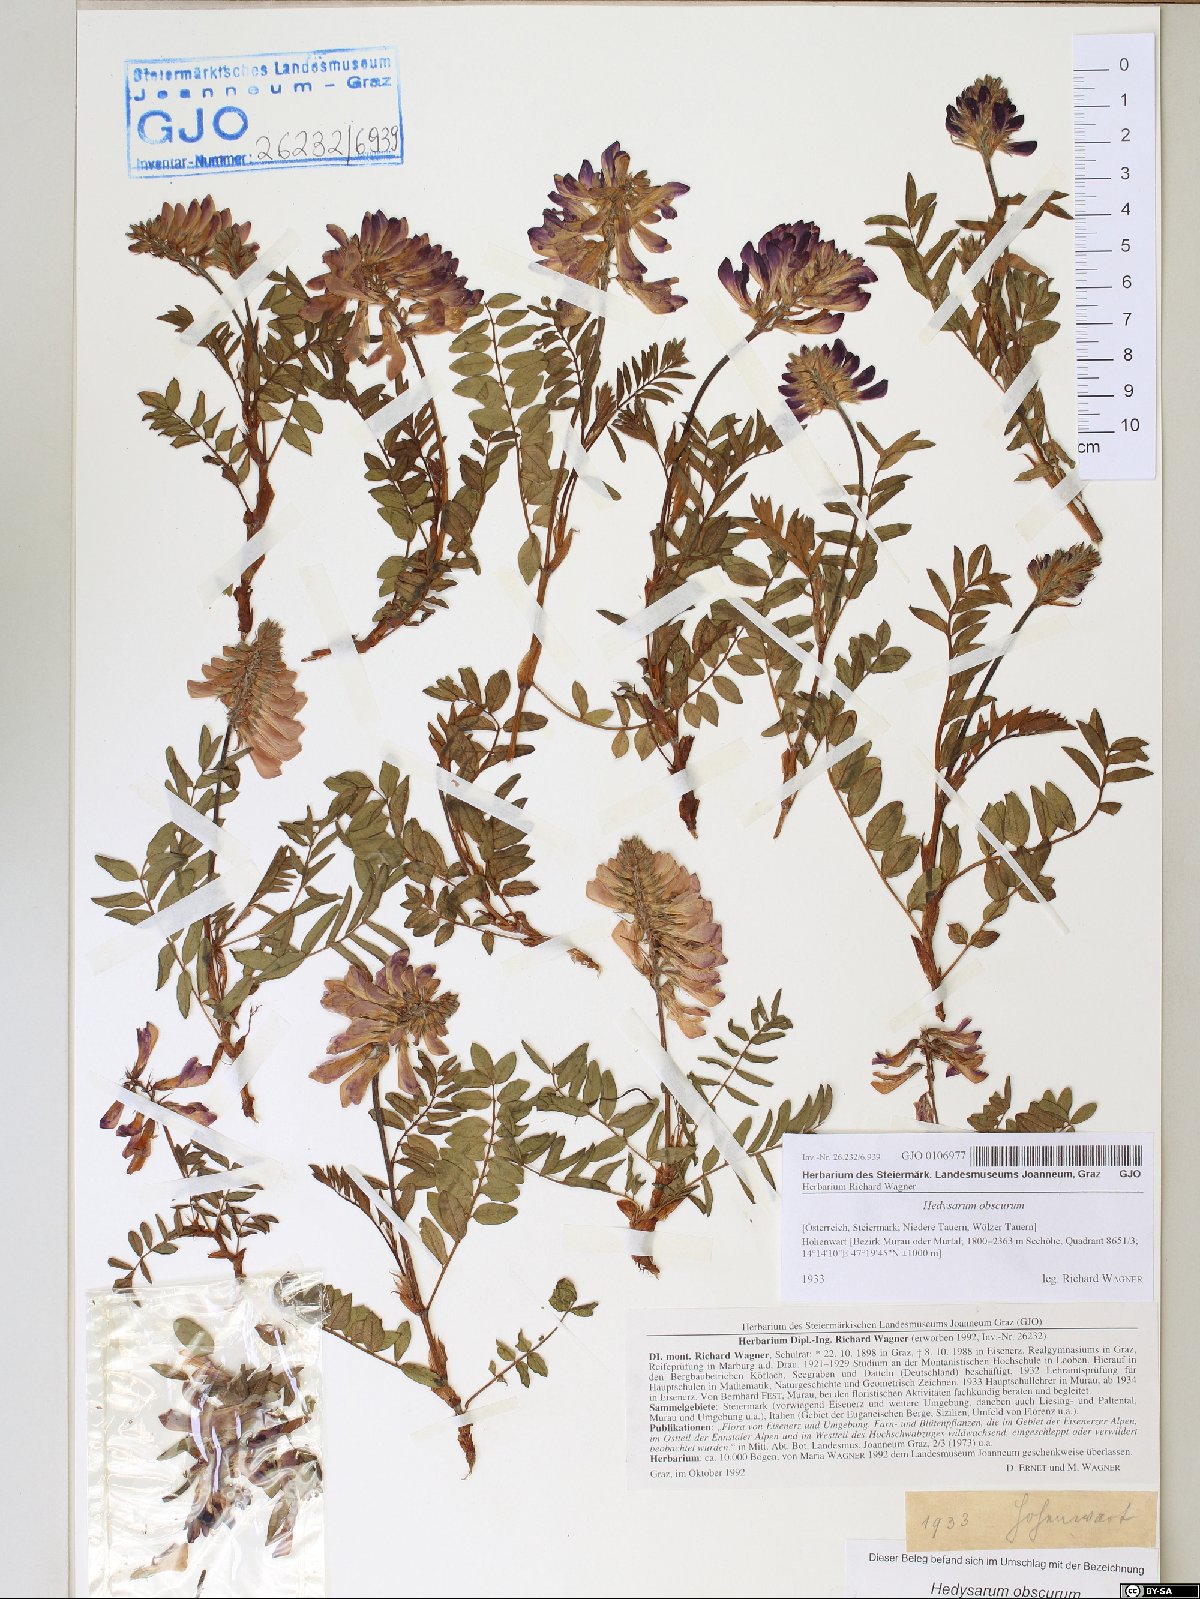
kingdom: Plantae
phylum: Tracheophyta
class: Magnoliopsida
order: Fabales
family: Fabaceae
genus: Hedysarum
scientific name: Hedysarum hedysaroides
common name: Alpine french-honeysuckle
